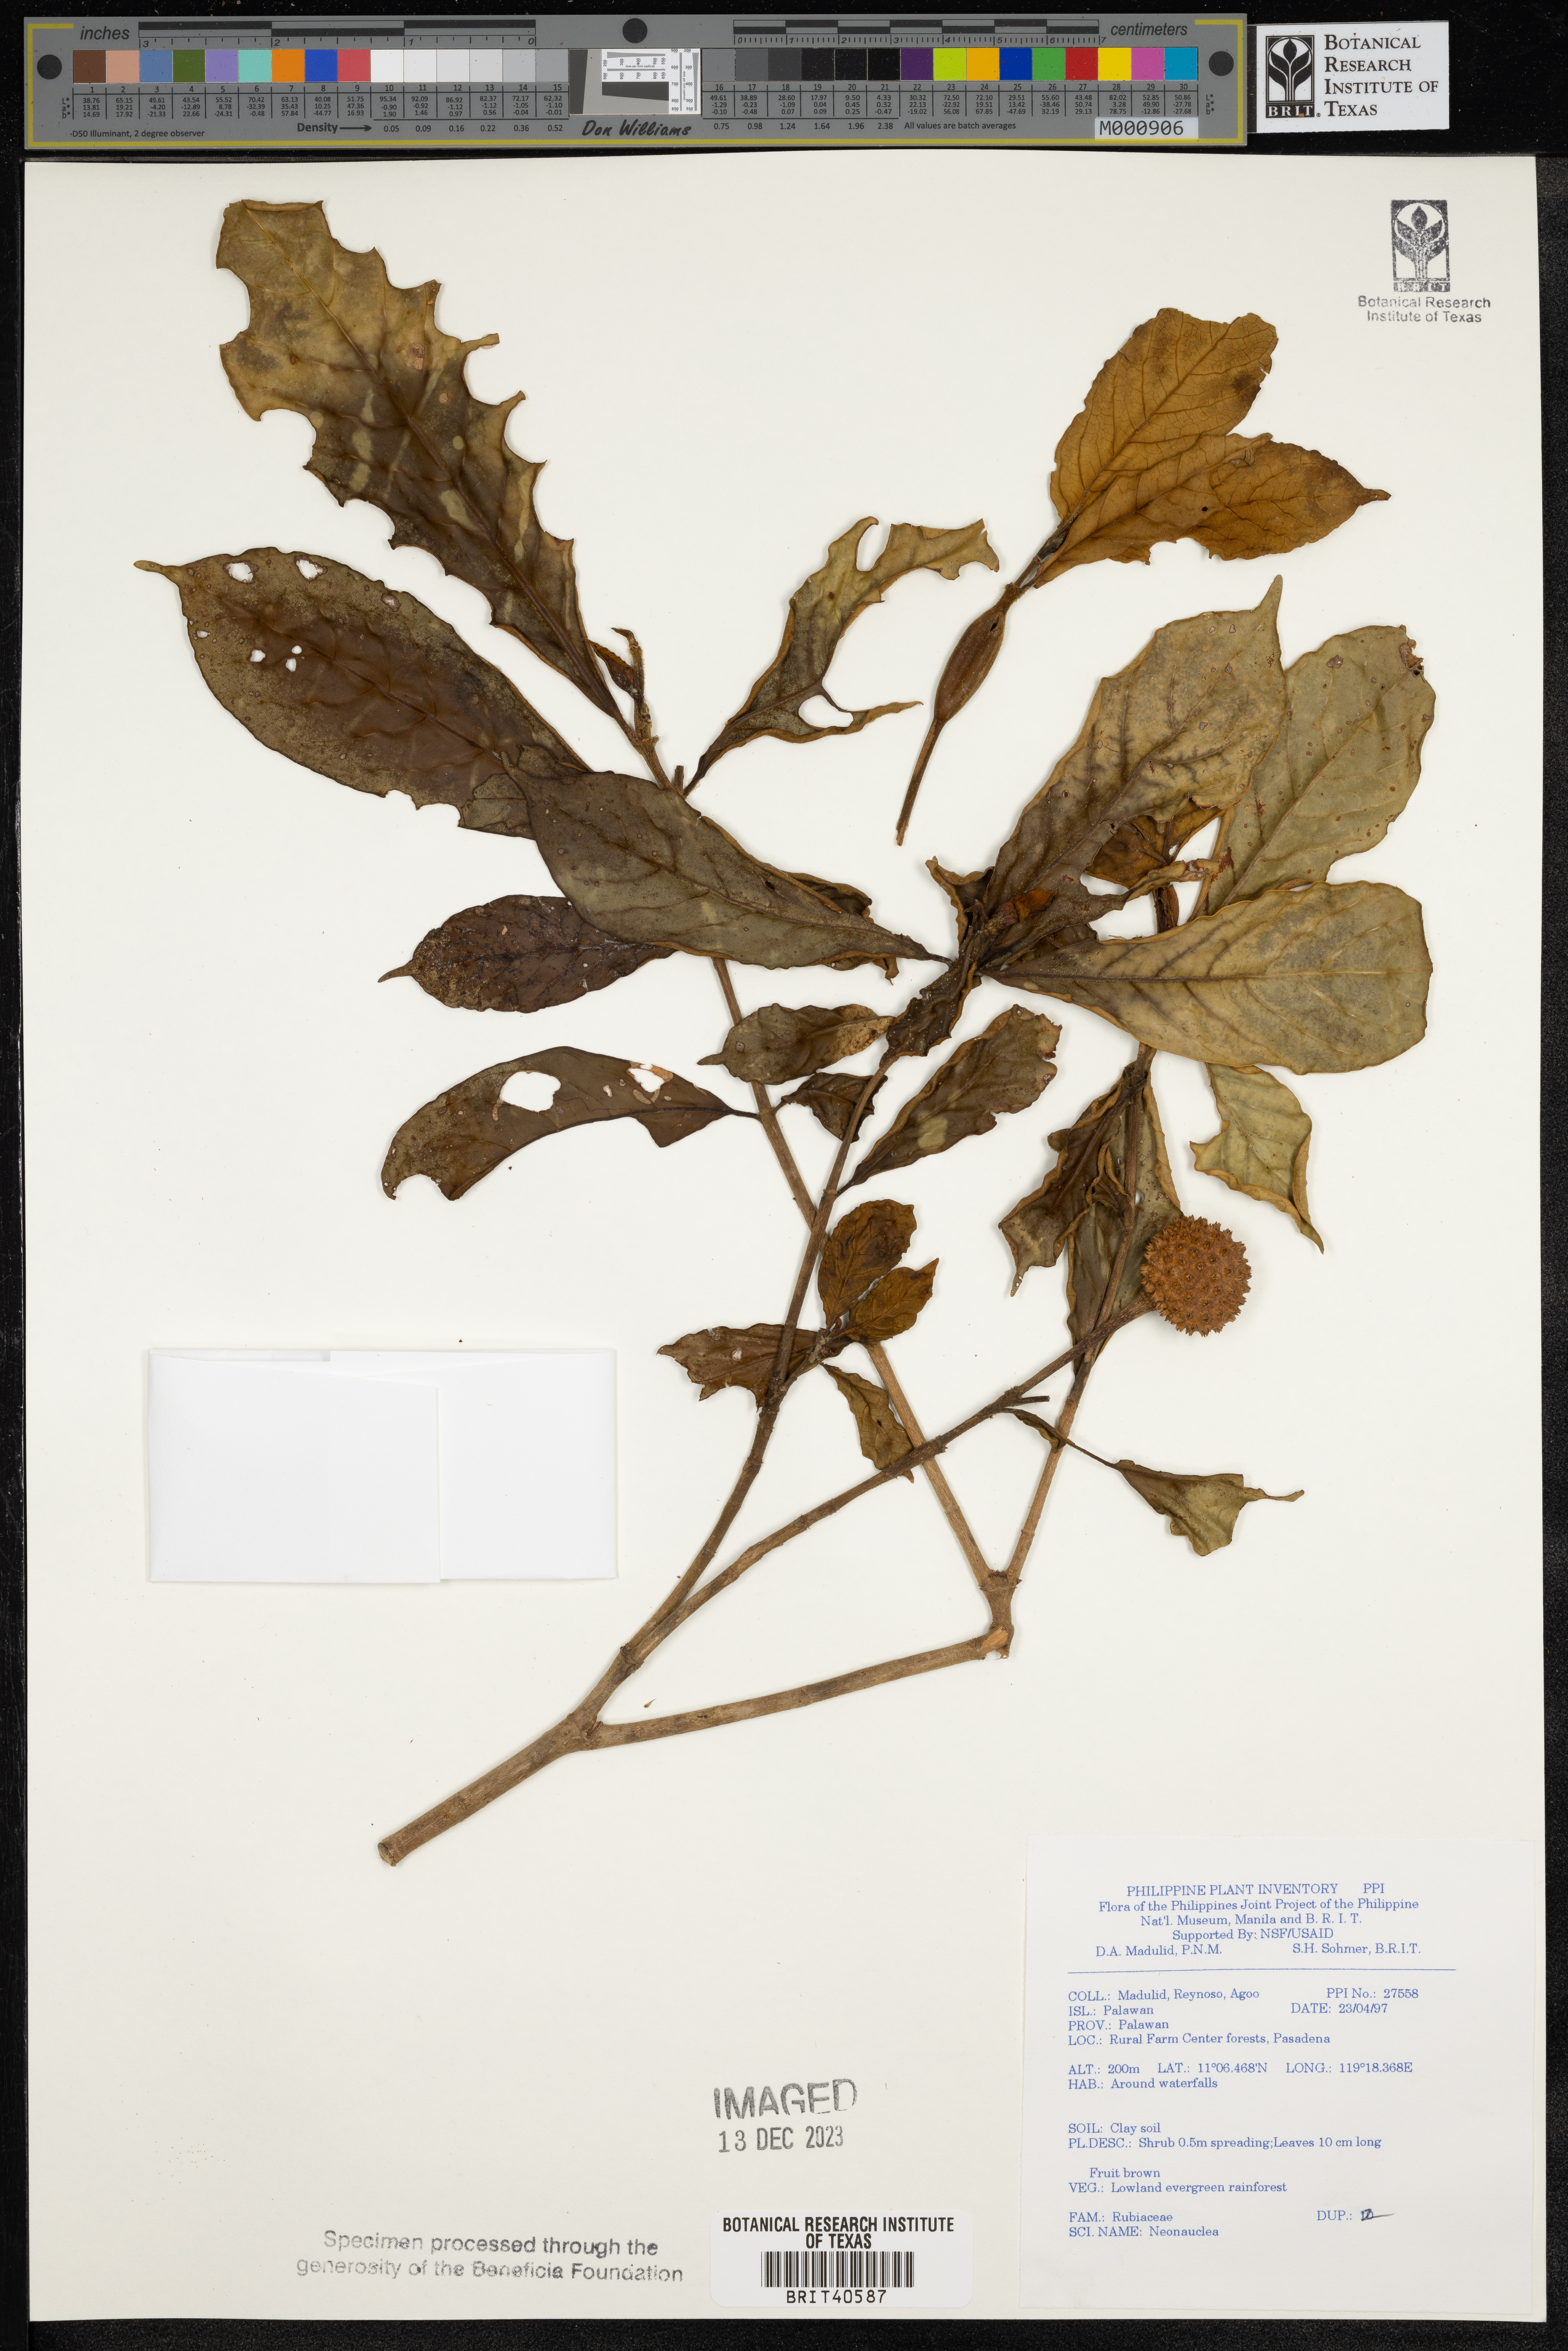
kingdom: Plantae
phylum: Tracheophyta
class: Magnoliopsida
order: Gentianales
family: Rubiaceae
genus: Neonauclea
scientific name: Neonauclea
